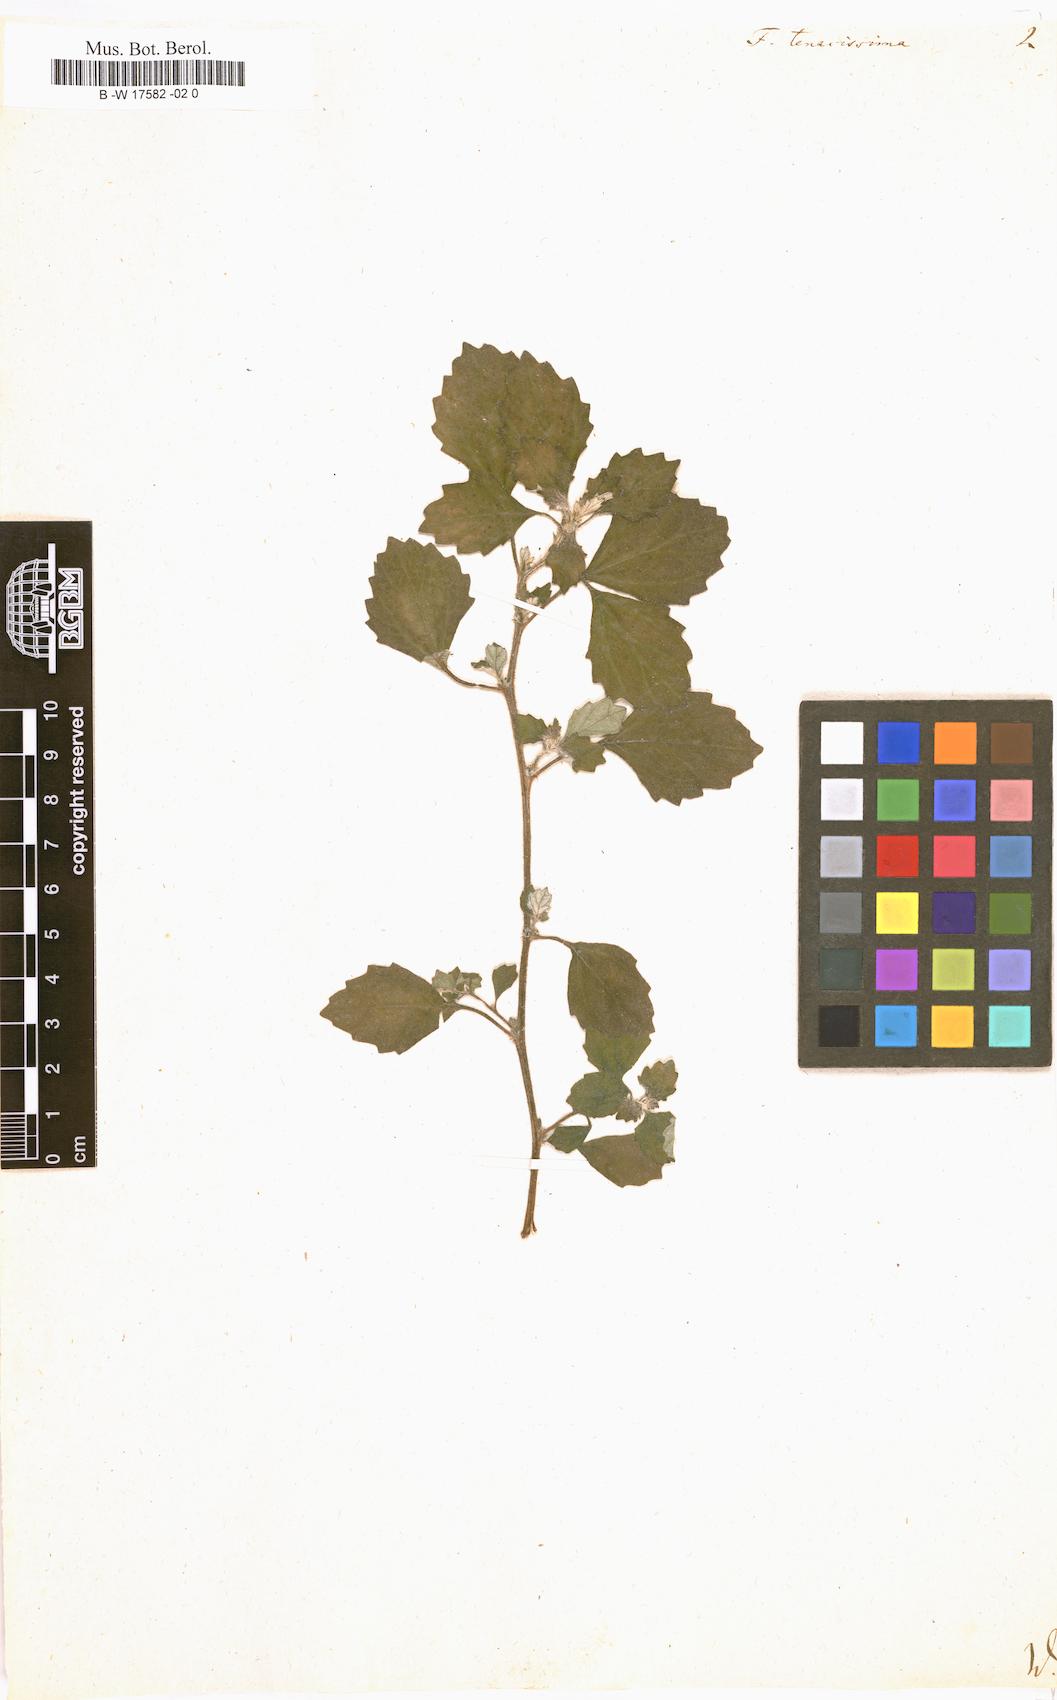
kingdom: Plantae
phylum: Tracheophyta
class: Magnoliopsida
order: Rosales
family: Urticaceae
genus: Forskohlea
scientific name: Forskohlea
